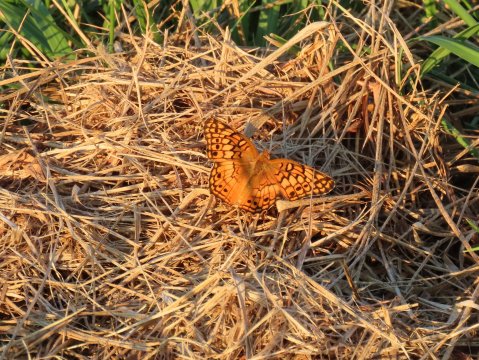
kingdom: Animalia
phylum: Arthropoda
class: Insecta
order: Lepidoptera
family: Nymphalidae
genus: Euptoieta
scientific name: Euptoieta claudia
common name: Variegated Fritillary
